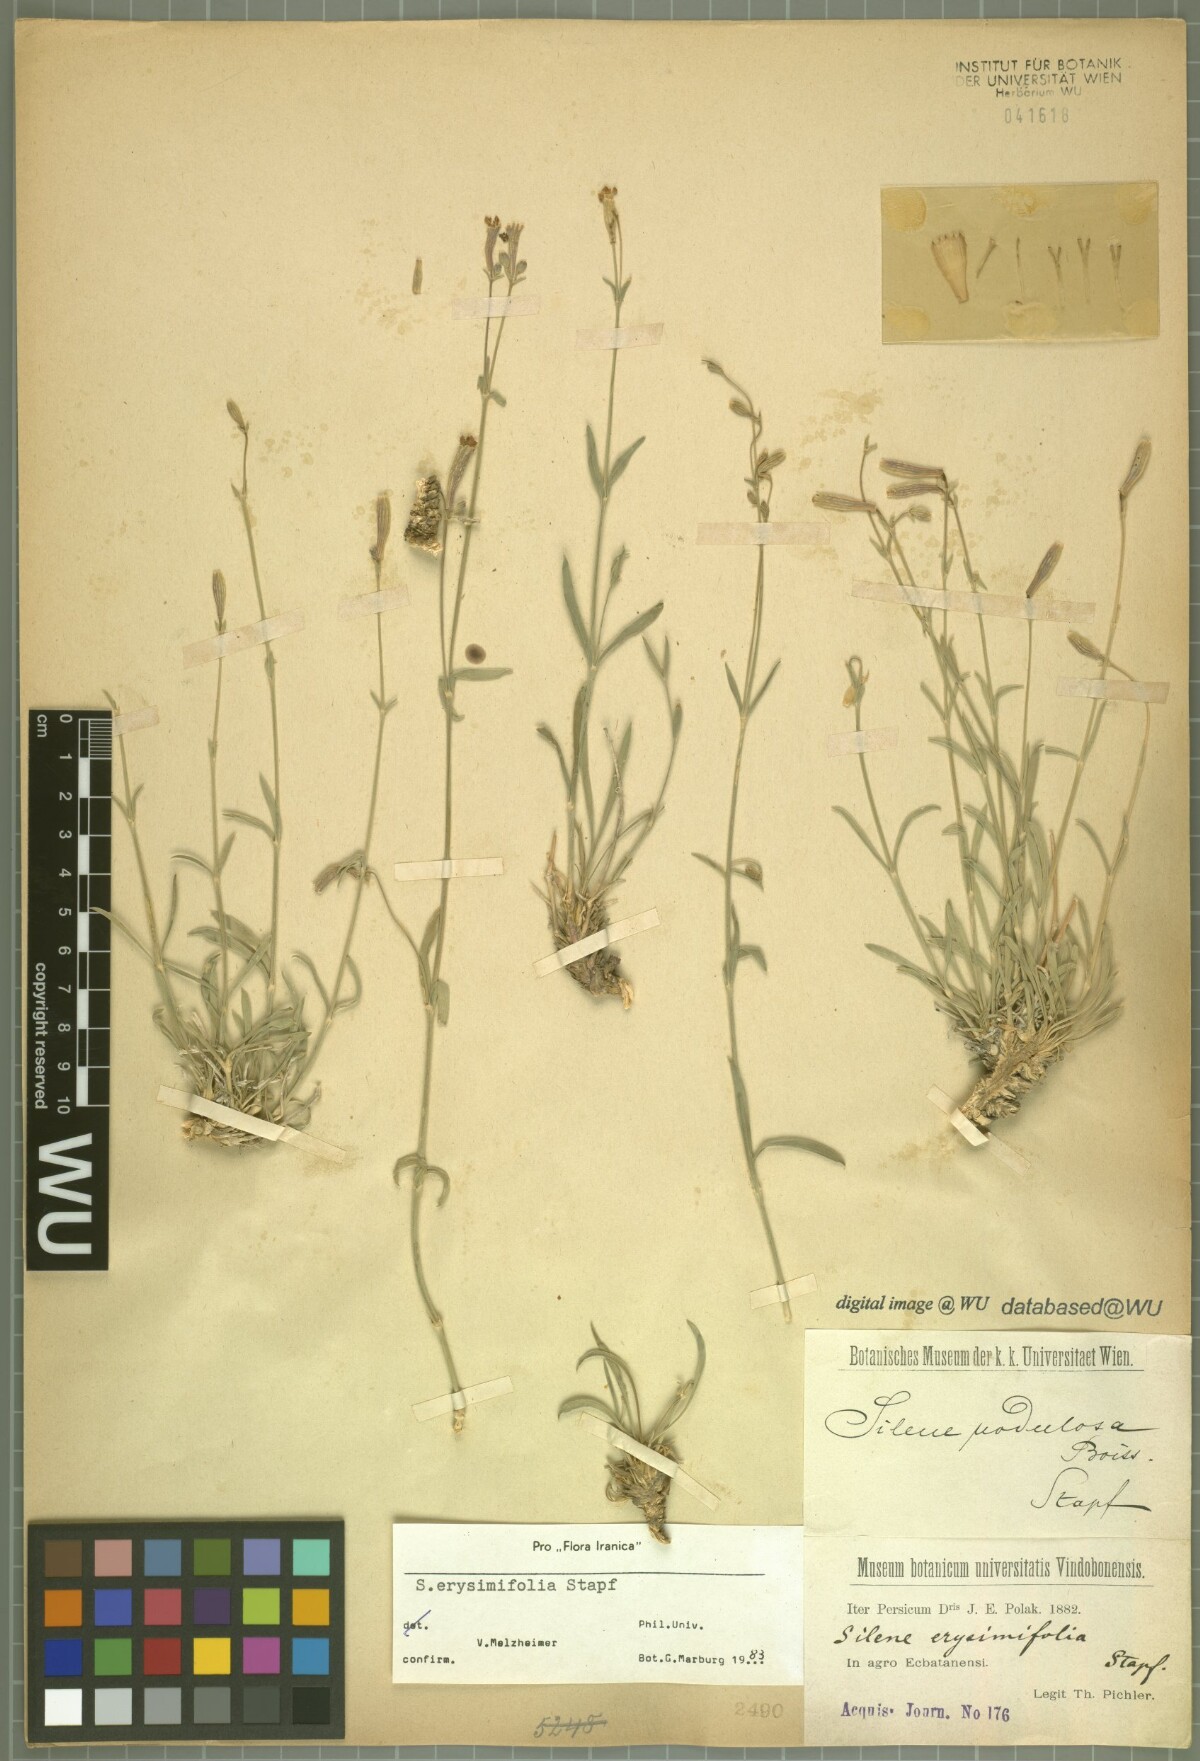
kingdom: Plantae
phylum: Tracheophyta
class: Magnoliopsida
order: Caryophyllales
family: Caryophyllaceae
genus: Silene
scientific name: Silene erysimifolia
